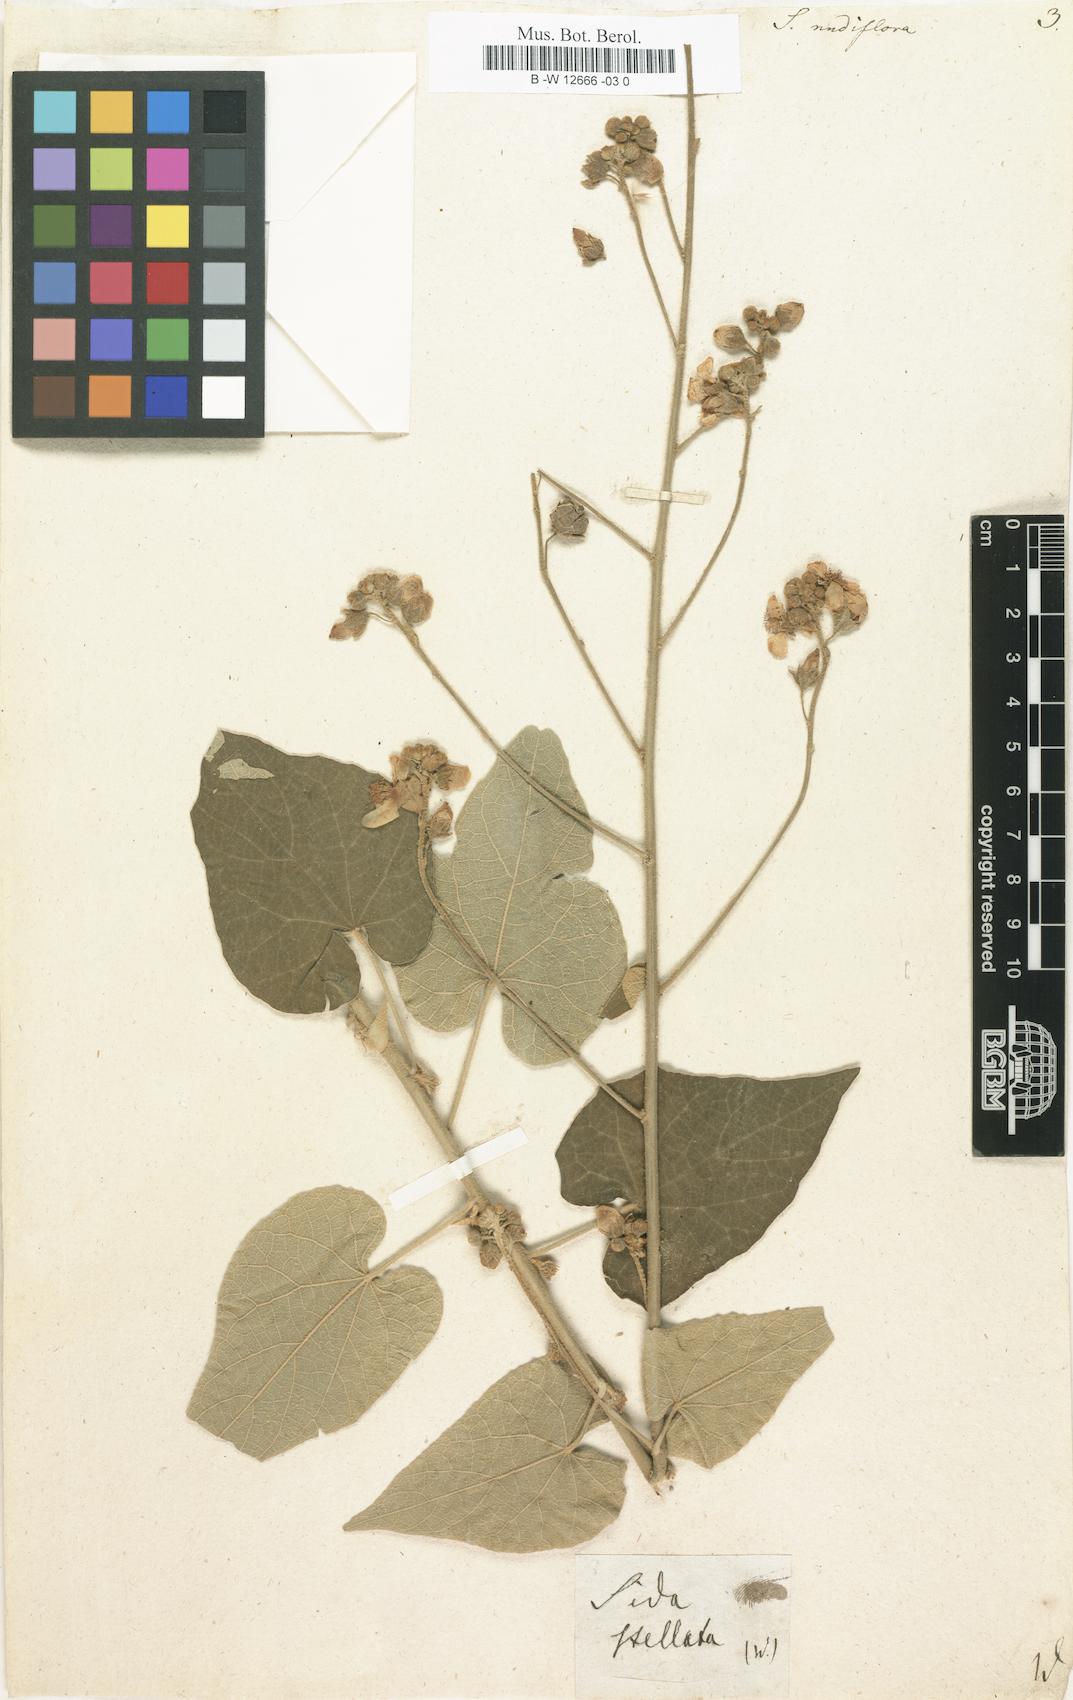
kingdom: Plantae
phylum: Tracheophyta
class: Magnoliopsida
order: Malvales
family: Malvaceae
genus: Wissadula
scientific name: Wissadula stellata
